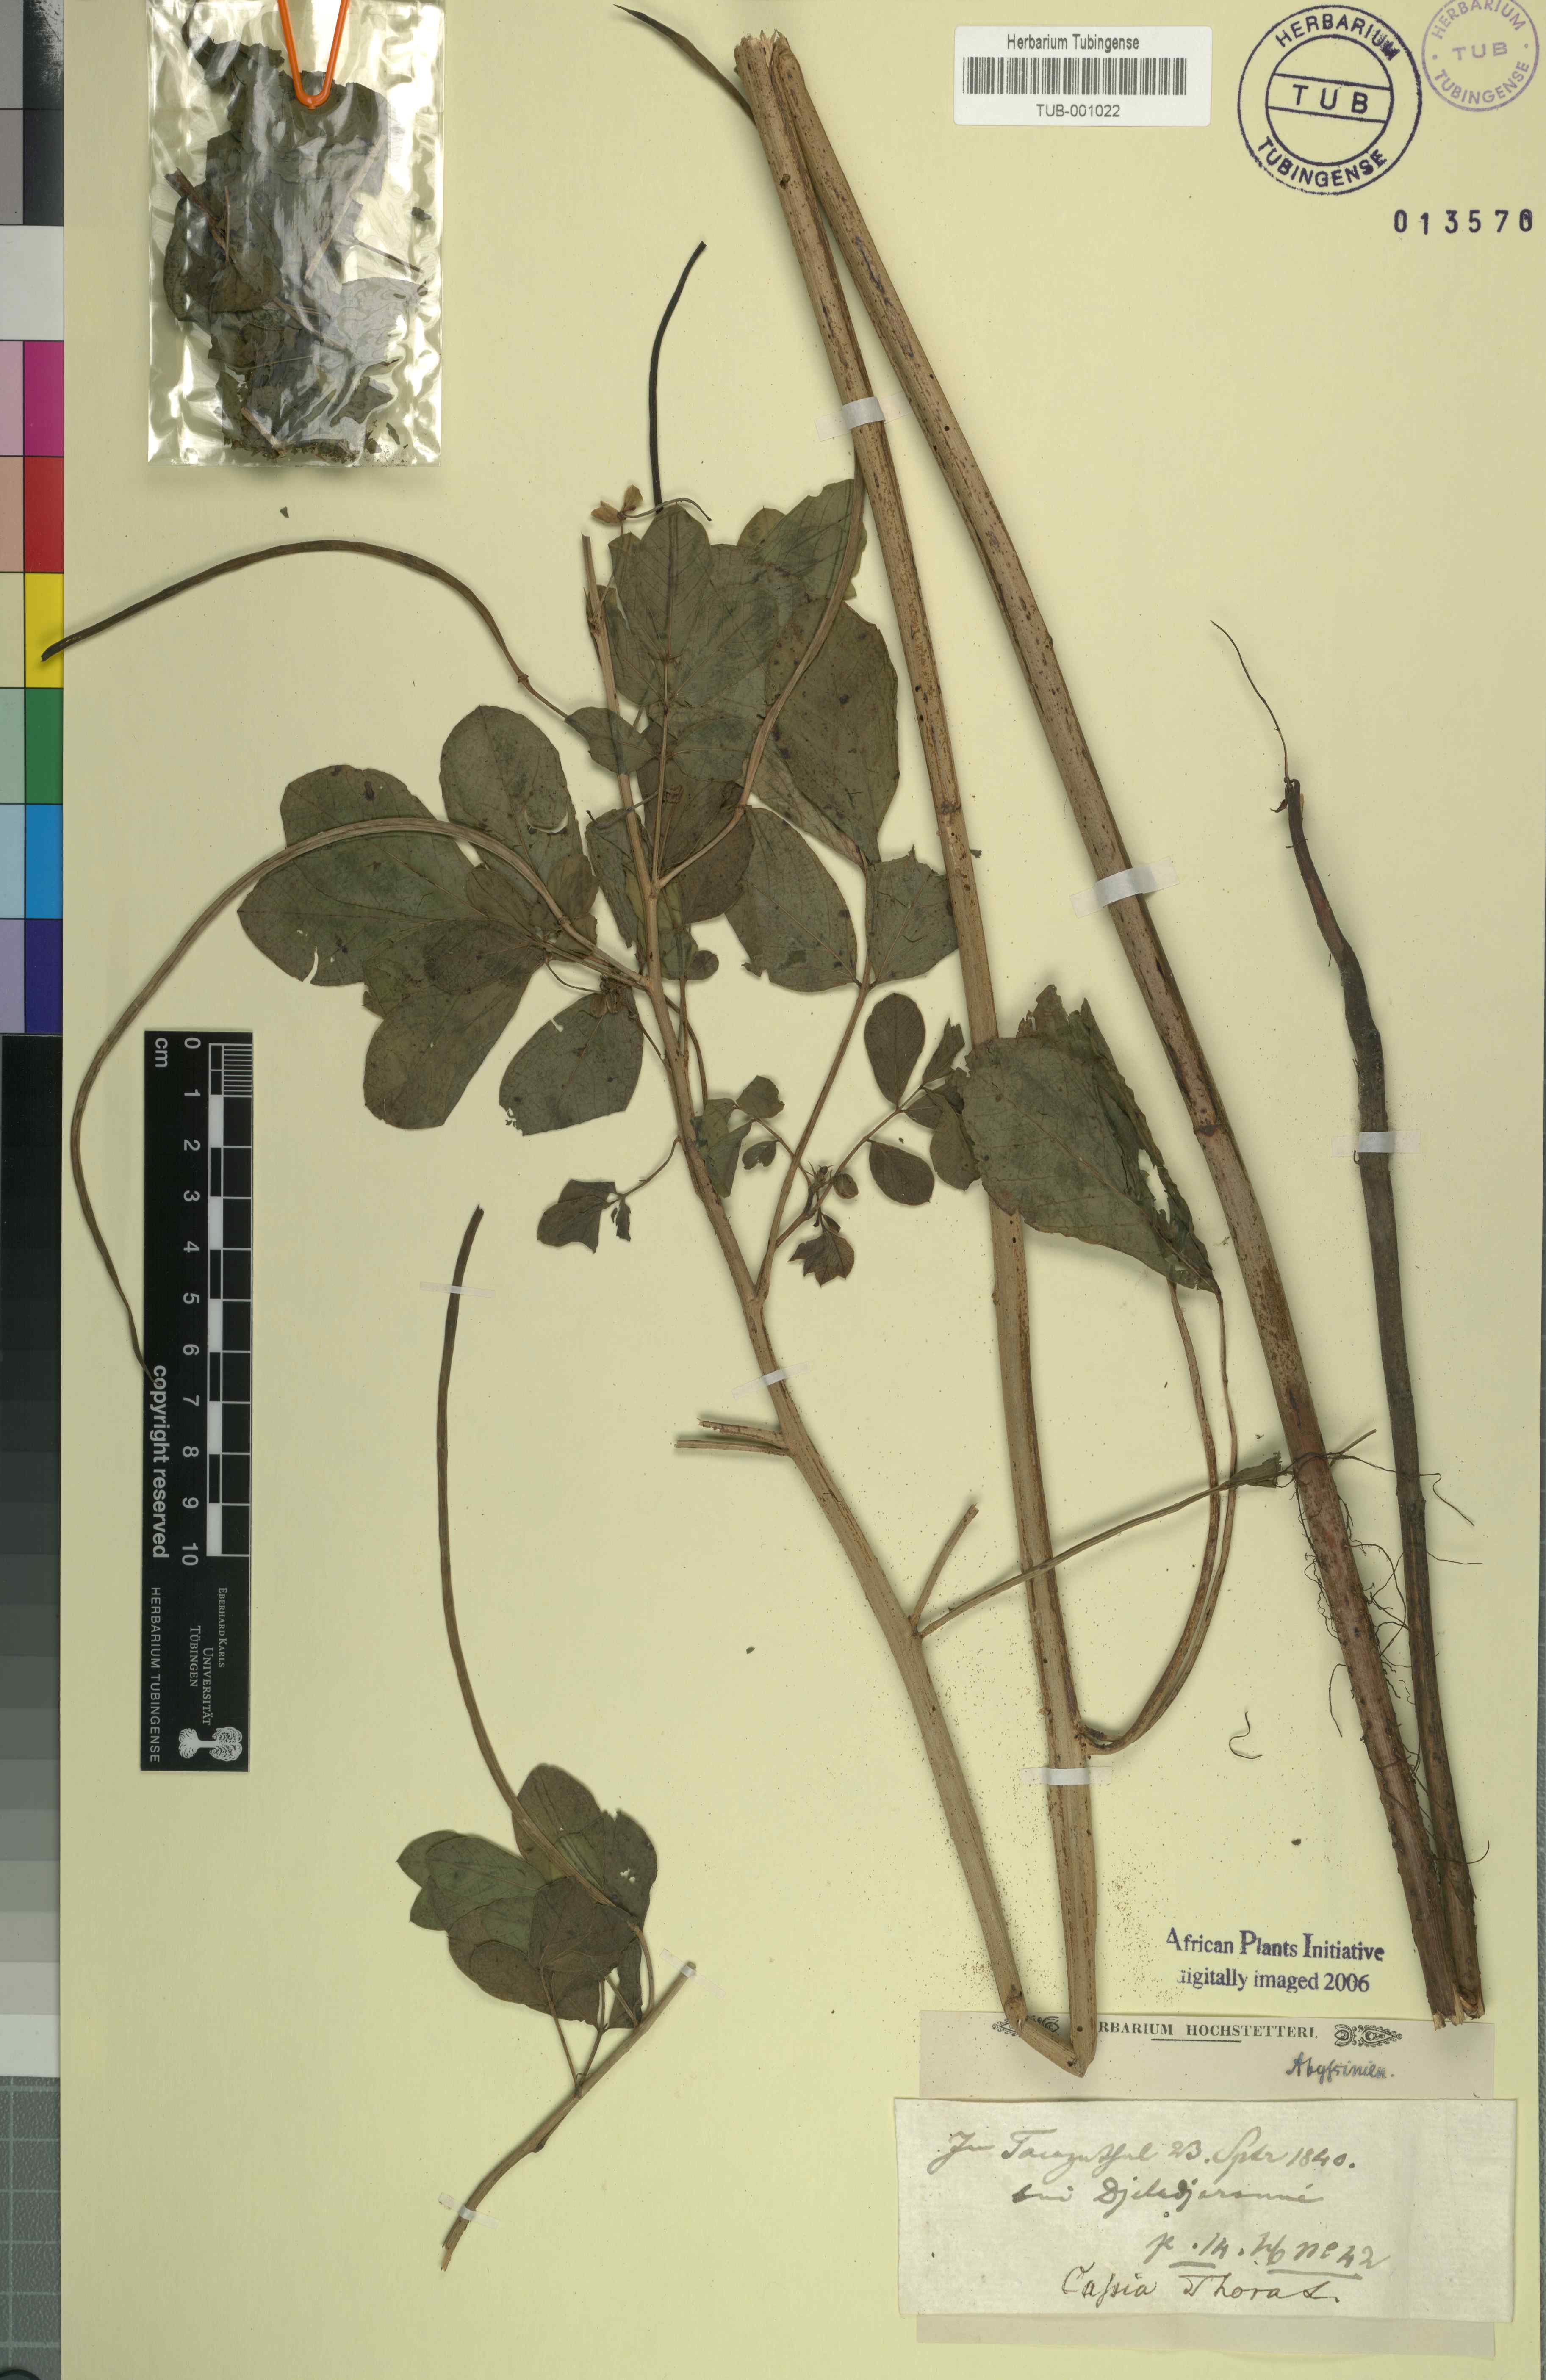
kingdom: Plantae
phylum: Tracheophyta
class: Magnoliopsida
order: Fabales
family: Fabaceae
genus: Senna
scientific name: Senna tora
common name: Sickle senna
